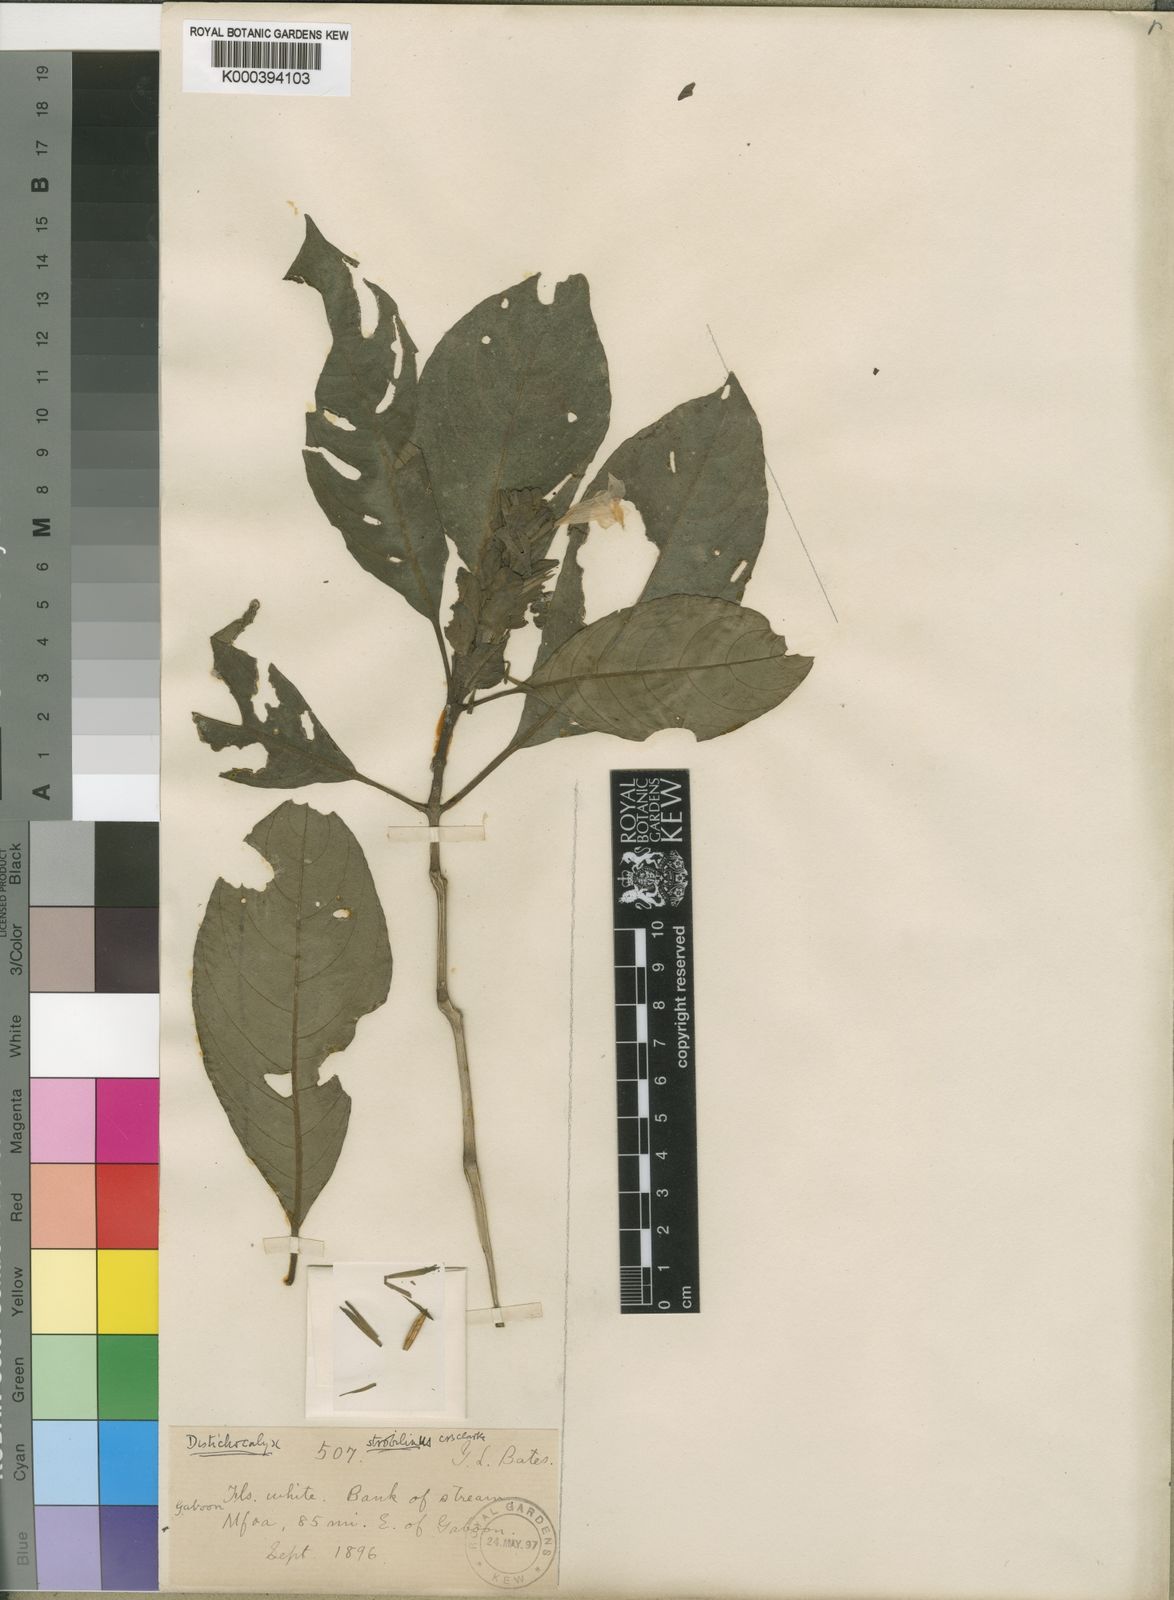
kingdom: Plantae
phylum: Tracheophyta
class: Magnoliopsida
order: Lamiales
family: Acanthaceae
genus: Dischistocalyx
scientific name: Dischistocalyx strobilinus
